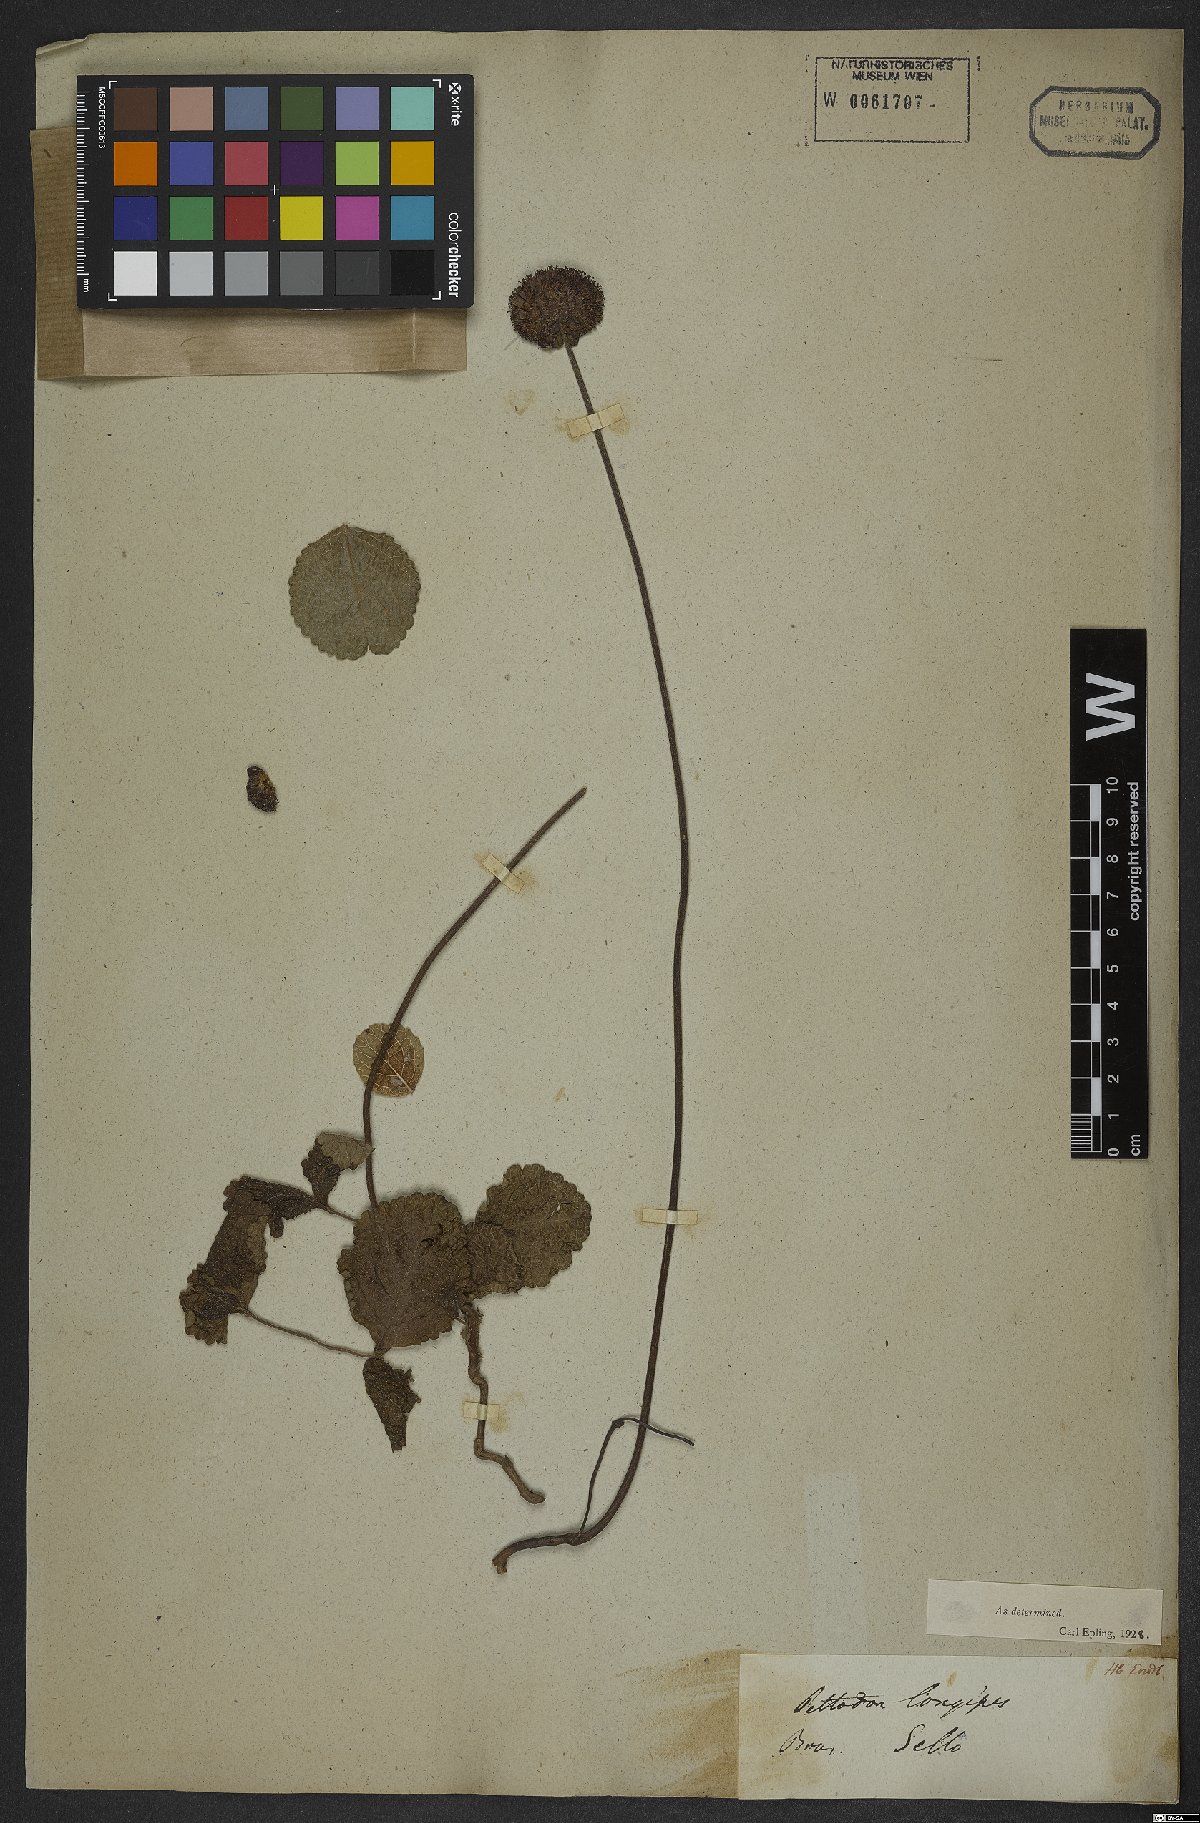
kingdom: Plantae
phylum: Tracheophyta
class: Magnoliopsida
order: Lamiales
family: Lamiaceae
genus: Hyptis
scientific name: Hyptis comaroides
